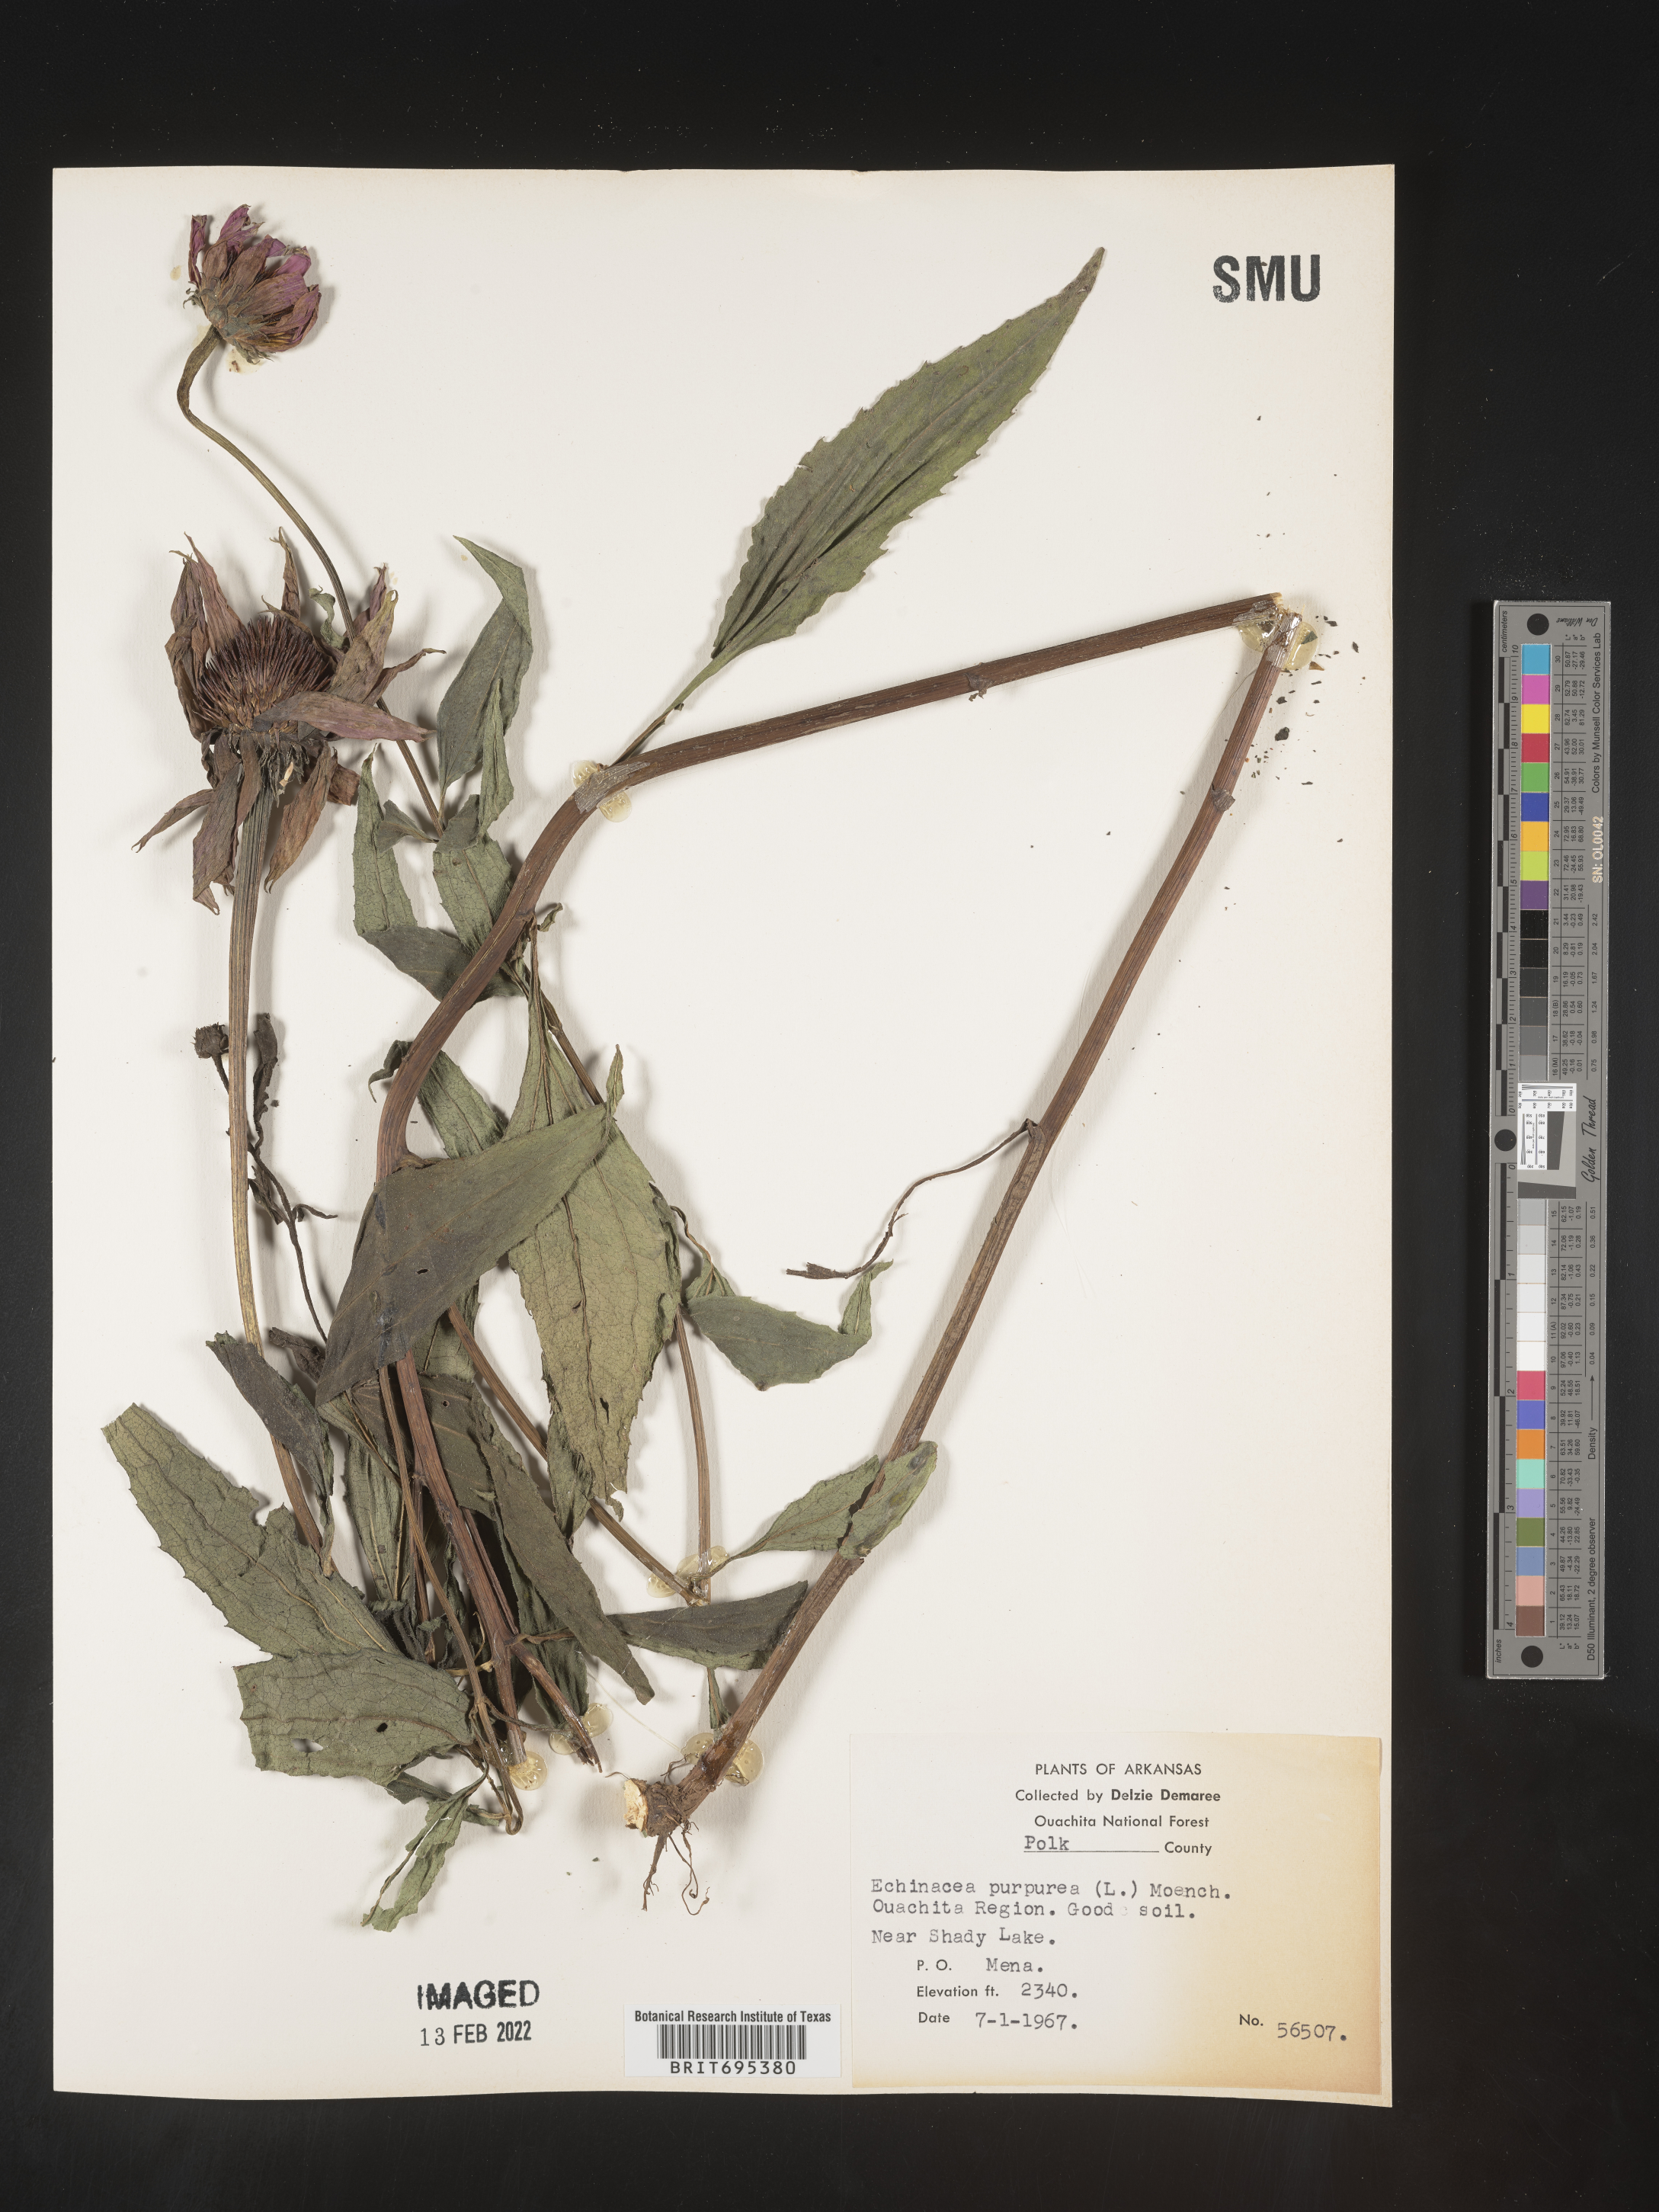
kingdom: Plantae
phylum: Tracheophyta
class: Magnoliopsida
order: Asterales
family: Asteraceae
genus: Echinacea
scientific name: Echinacea purpurea
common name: Broad-leaved purple coneflower
